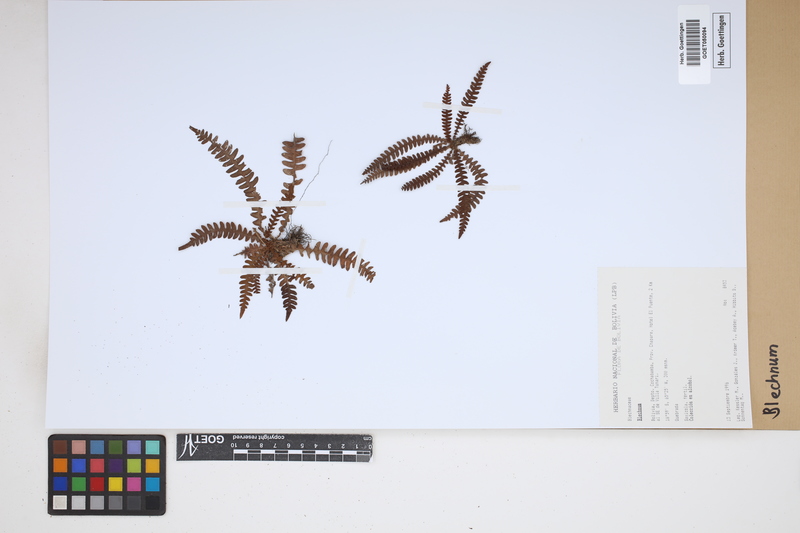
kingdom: Plantae
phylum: Tracheophyta
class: Polypodiopsida
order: Polypodiales
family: Blechnaceae
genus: Blechnum
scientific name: Blechnum
